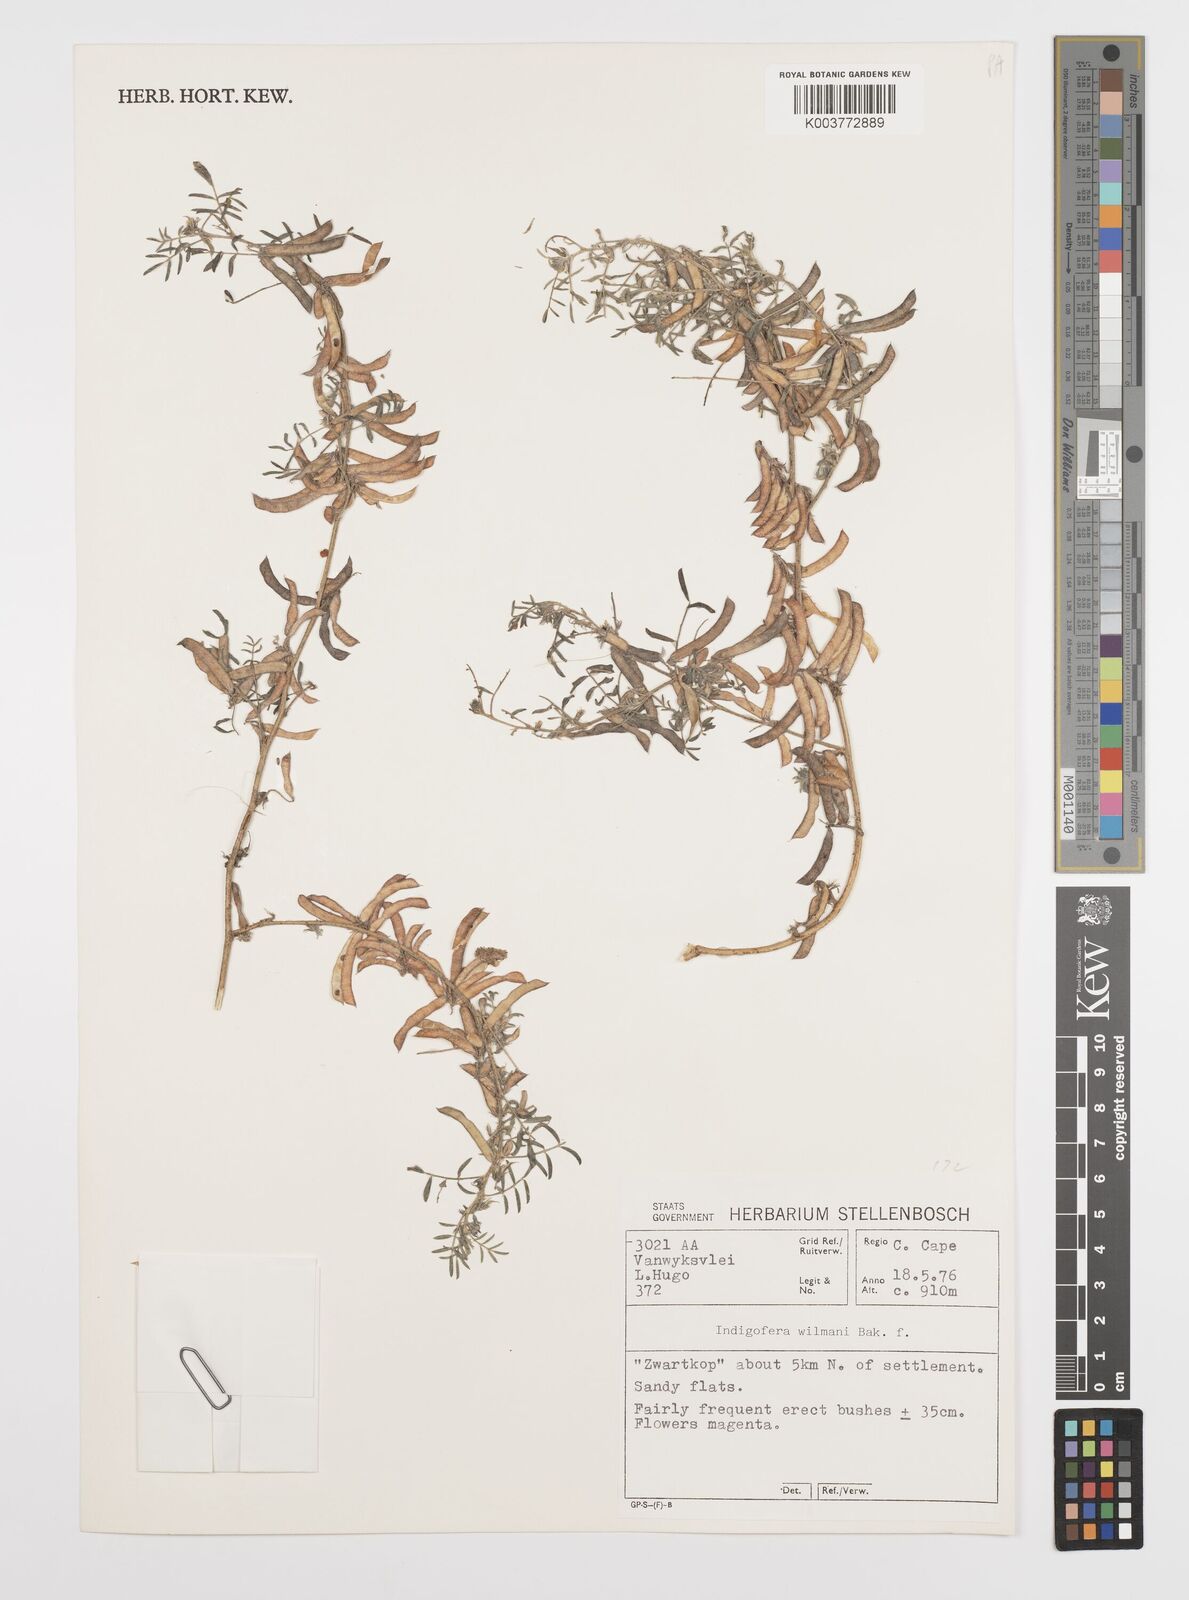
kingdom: Plantae
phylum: Tracheophyta
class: Magnoliopsida
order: Fabales
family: Fabaceae
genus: Indigofera
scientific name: Indigofera damarana
